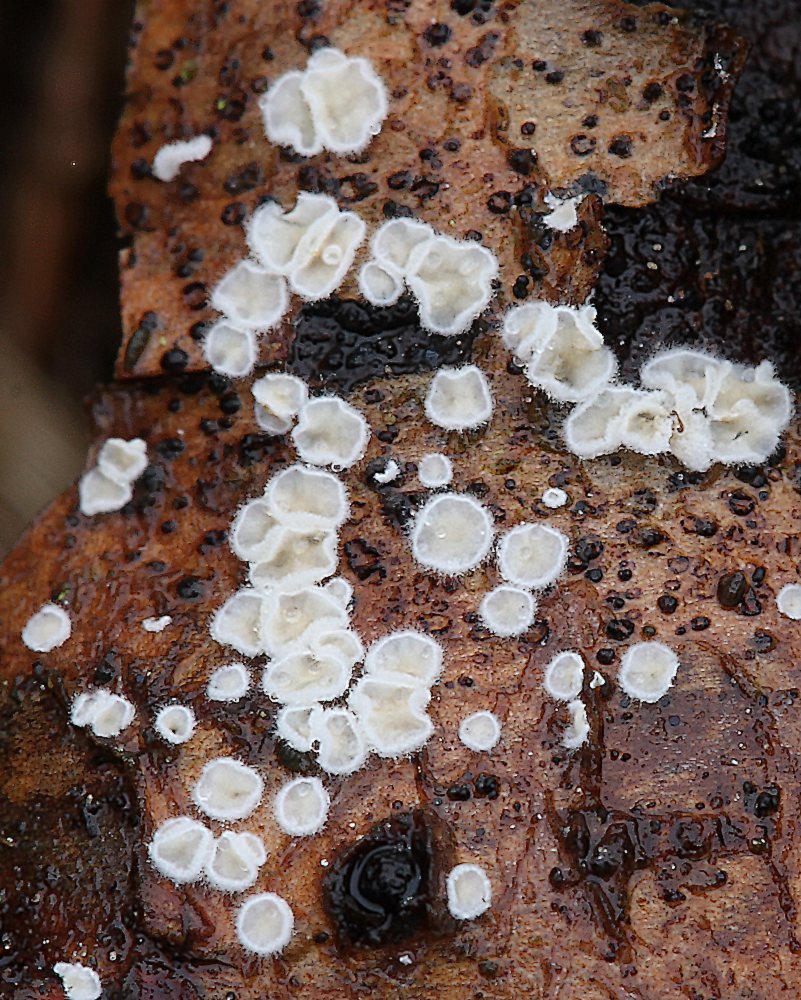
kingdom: Fungi
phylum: Basidiomycota
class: Agaricomycetes
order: Agaricales
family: Crepidotaceae
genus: Pellidiscus
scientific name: Pellidiscus pallidus
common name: skålformet muslingesvamp
